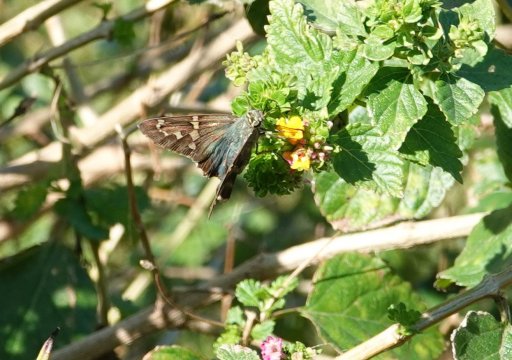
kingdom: Animalia
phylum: Arthropoda
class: Insecta
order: Lepidoptera
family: Hesperiidae
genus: Urbanus
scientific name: Urbanus proteus
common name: Long-tailed Skipper
